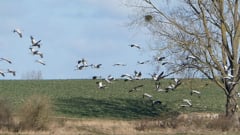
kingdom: Animalia
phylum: Chordata
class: Aves
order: Gruiformes
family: Gruidae
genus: Grus
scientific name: Grus grus
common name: Common crane
